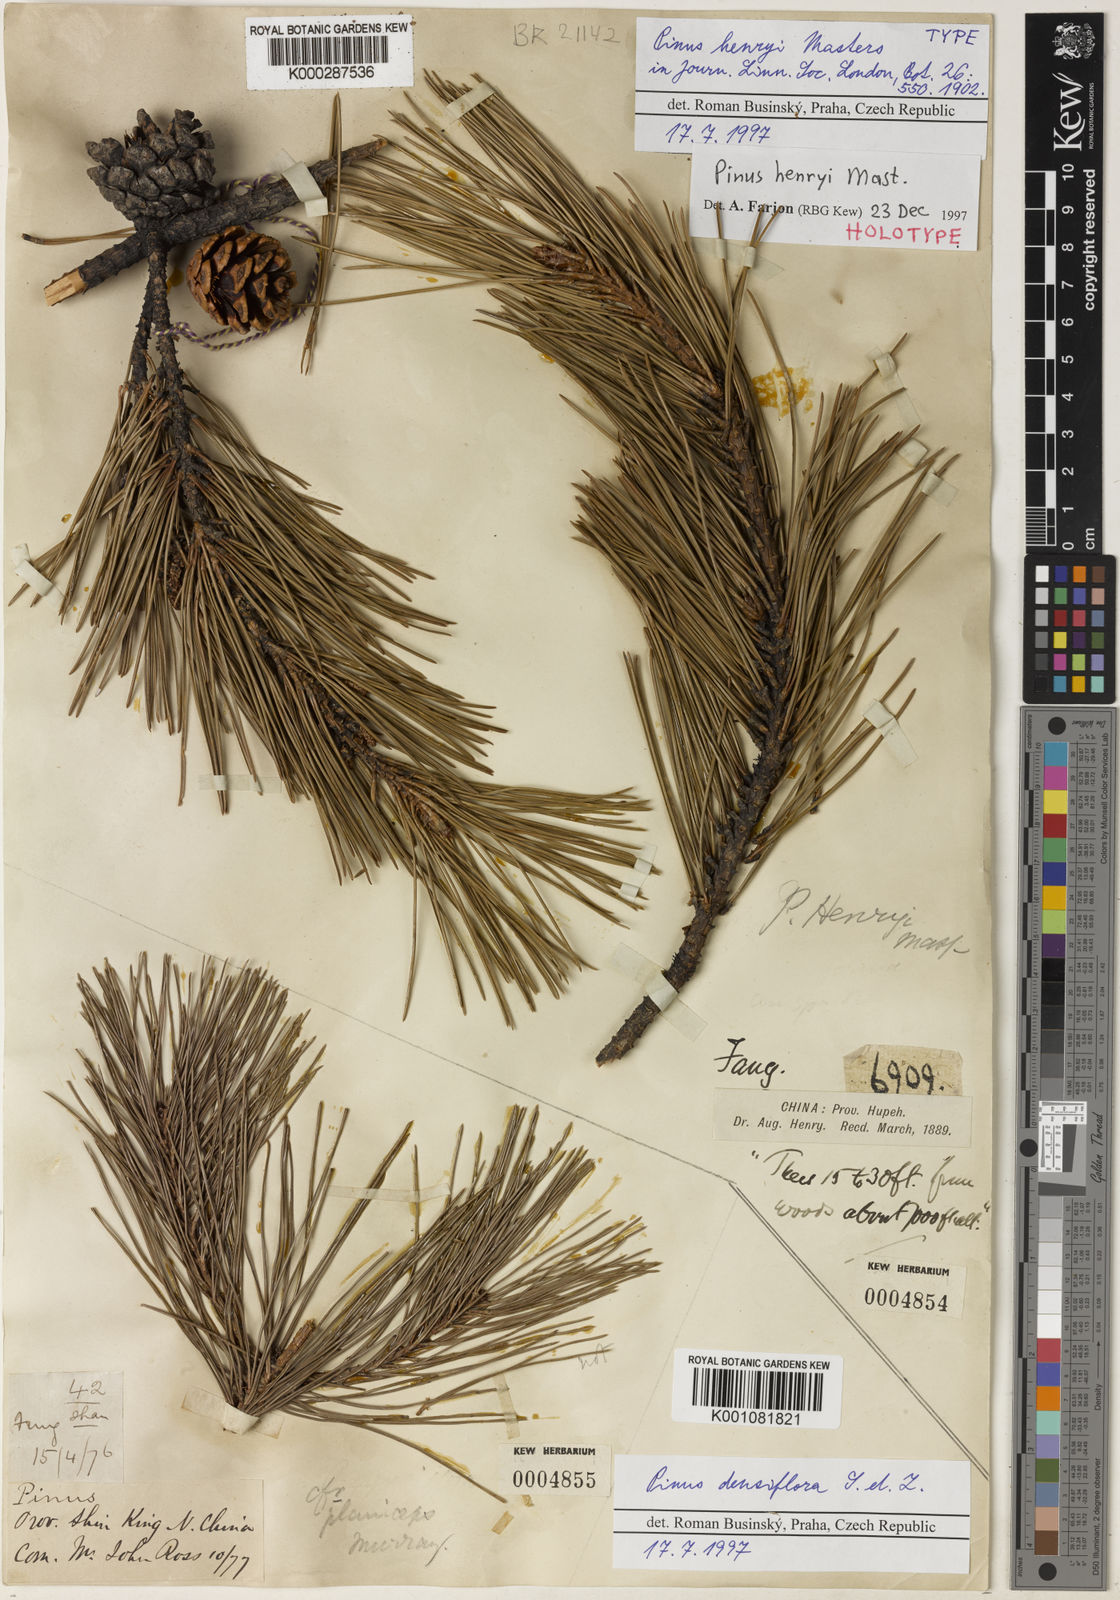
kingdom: Plantae
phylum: Tracheophyta
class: Pinopsida
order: Pinales
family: Pinaceae
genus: Pinus
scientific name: Pinus henryi
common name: Henry's pine
